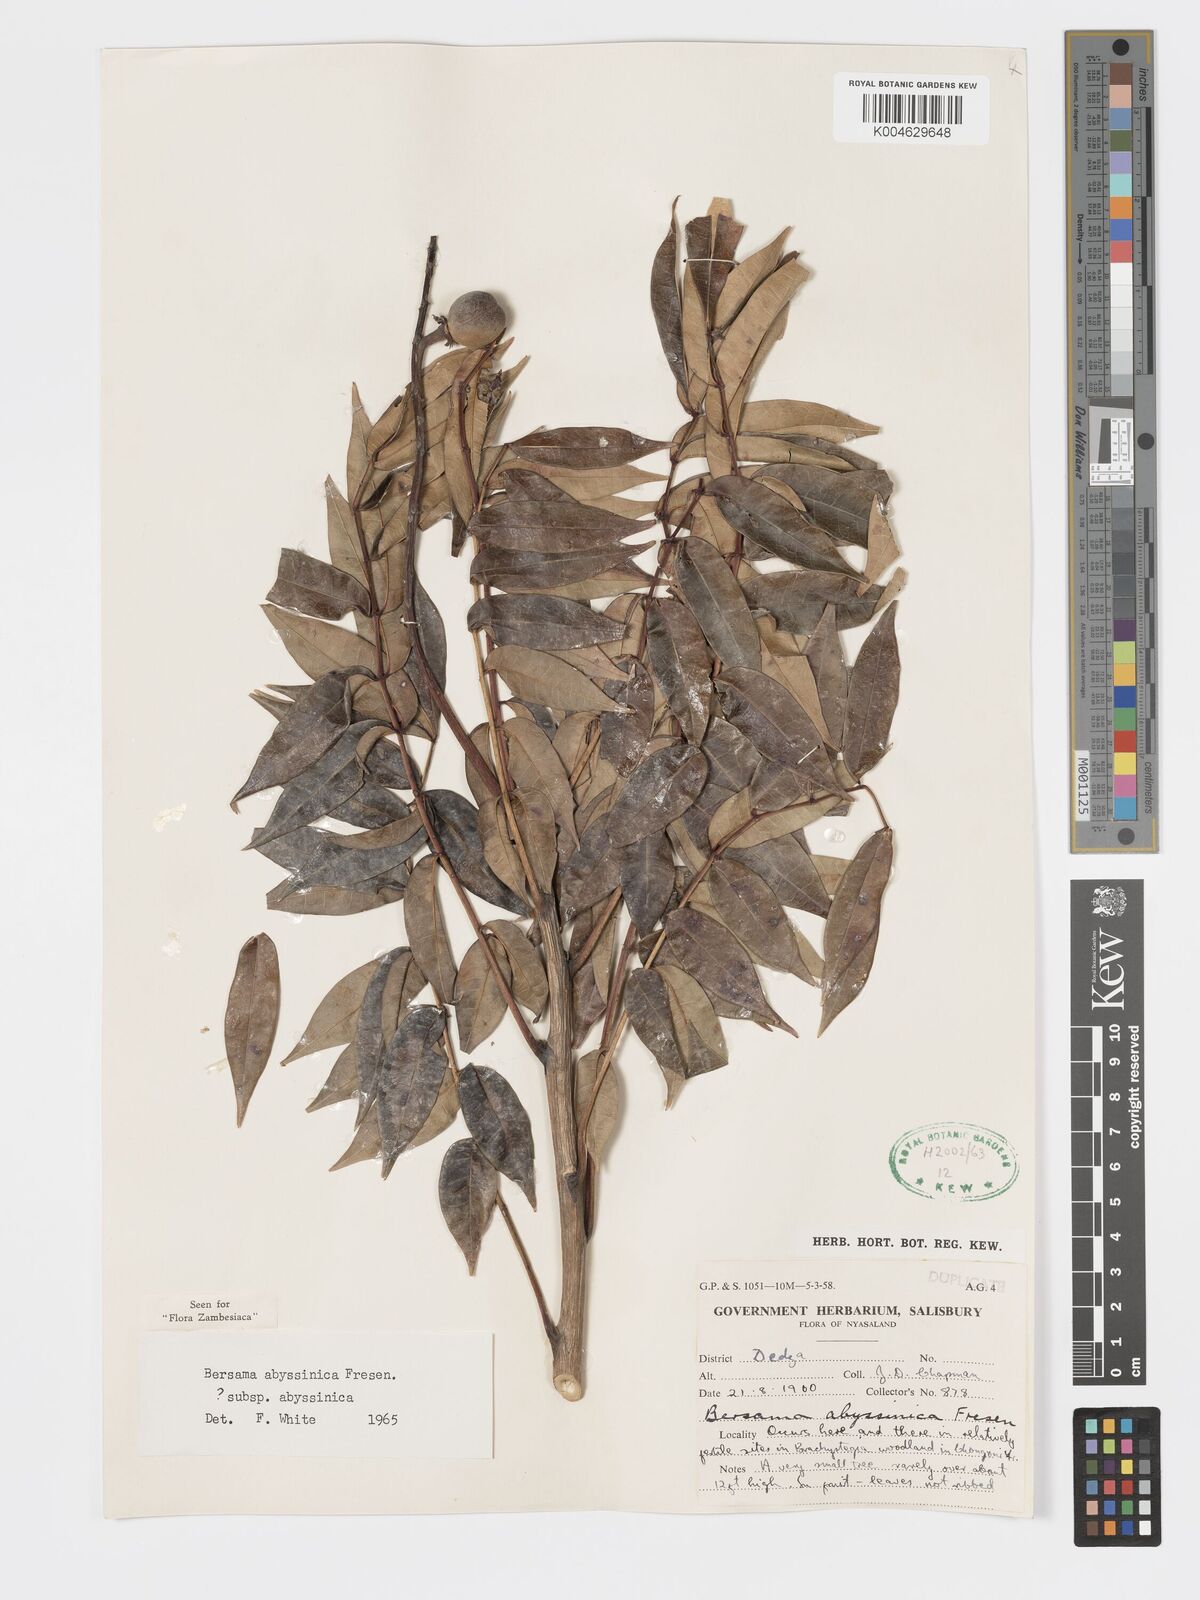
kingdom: Plantae
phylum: Tracheophyta
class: Magnoliopsida
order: Geraniales
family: Francoaceae
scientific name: Francoaceae
